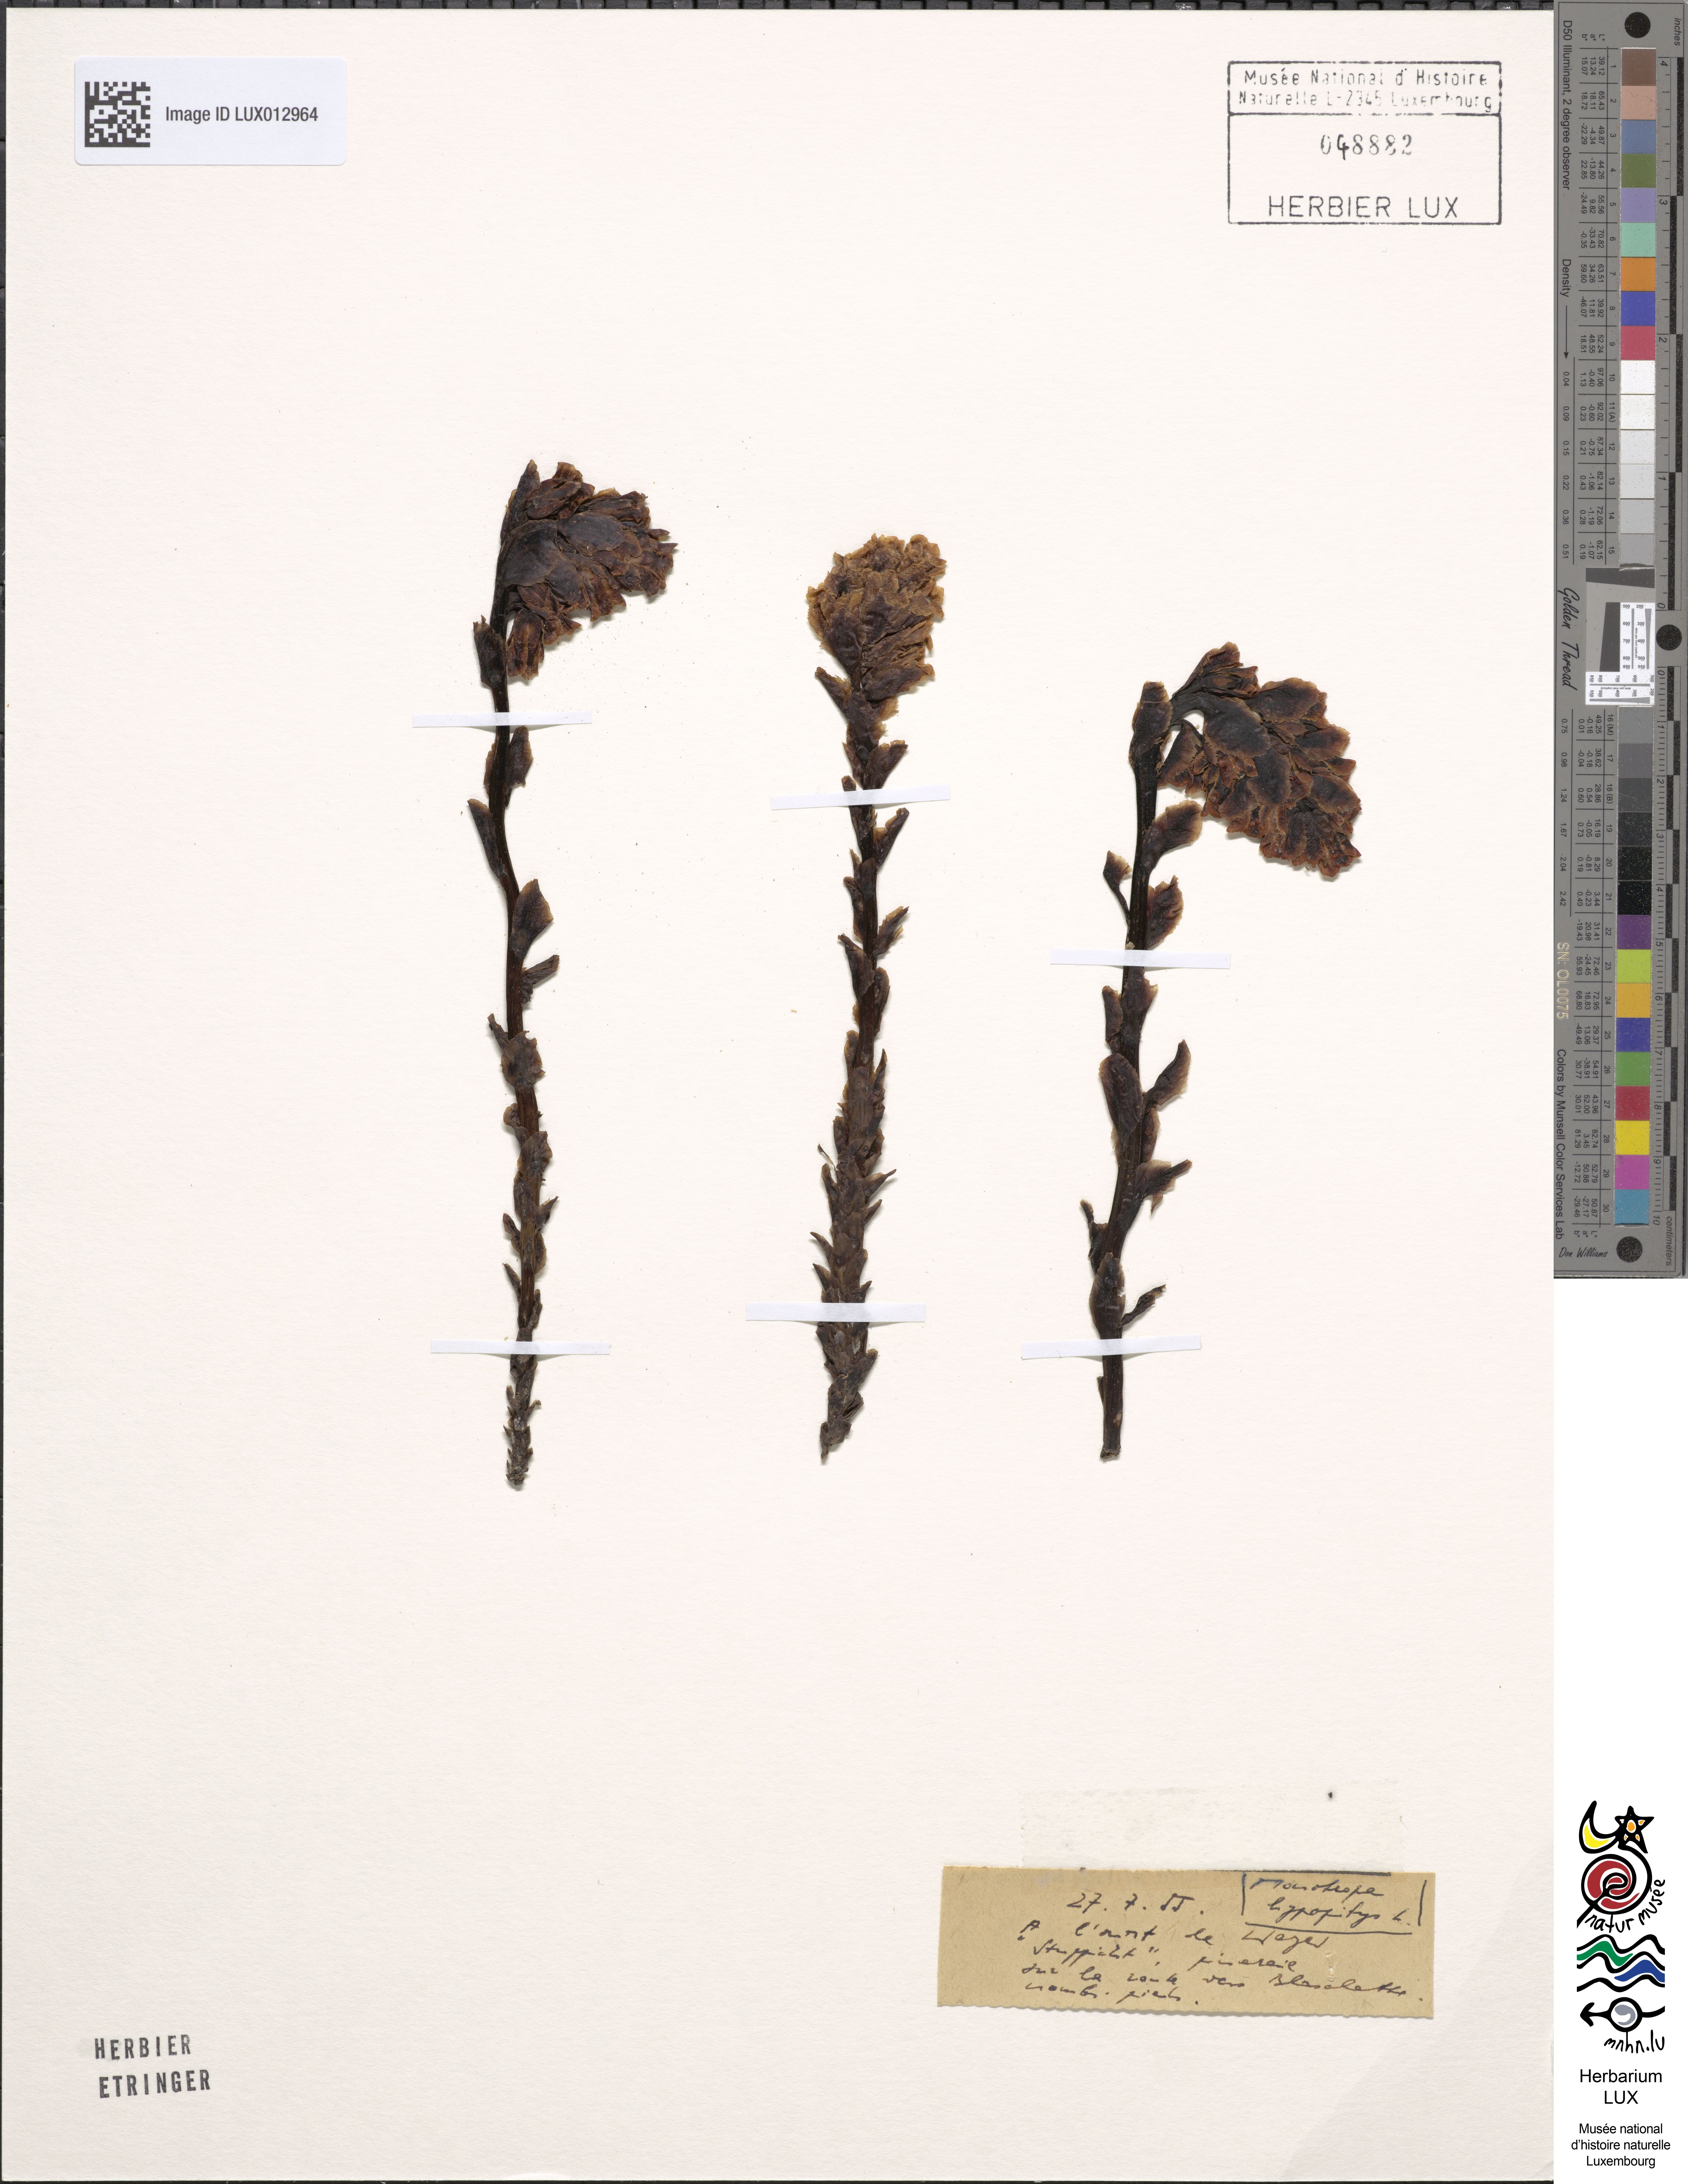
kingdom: Plantae
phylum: Tracheophyta
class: Magnoliopsida
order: Ericales
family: Ericaceae
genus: Hypopitys
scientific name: Hypopitys monotropa
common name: Yellow bird's-nest
